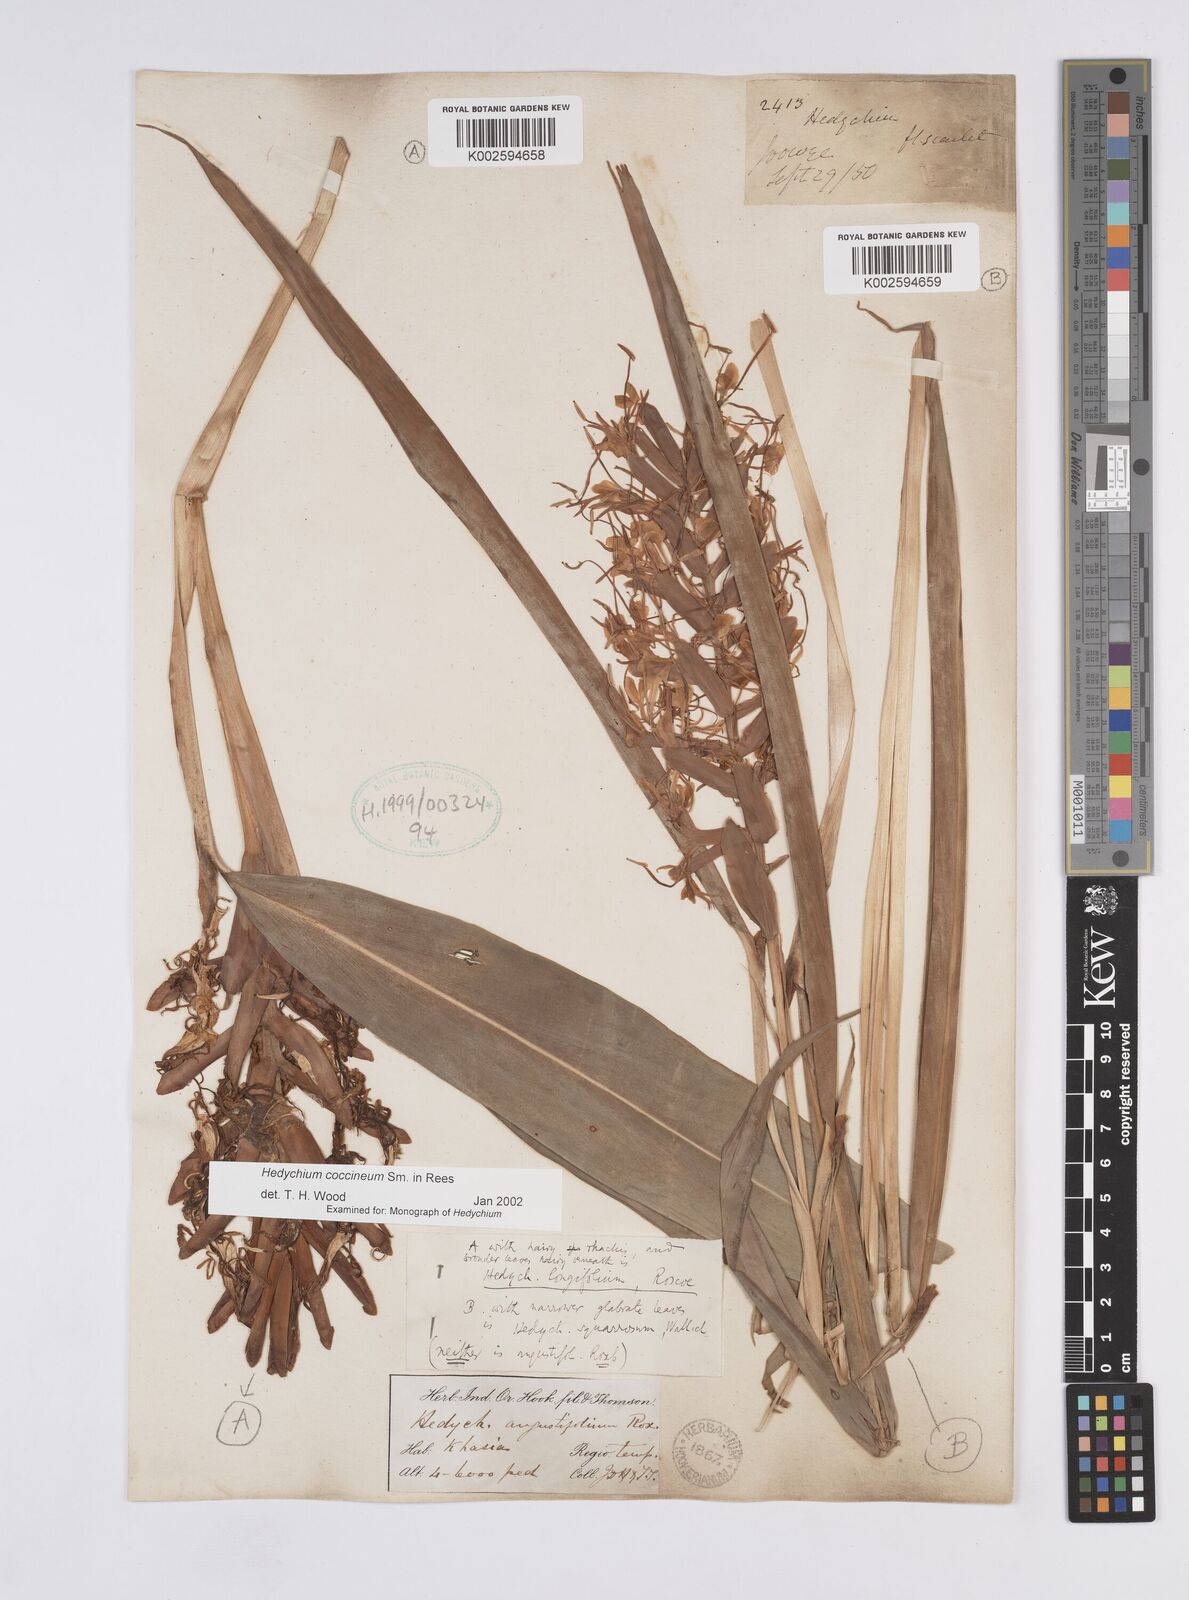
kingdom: Plantae
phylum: Tracheophyta
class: Liliopsida
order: Zingiberales
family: Zingiberaceae
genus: Hedychium
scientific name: Hedychium coccineum
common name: Red ginger-lily
